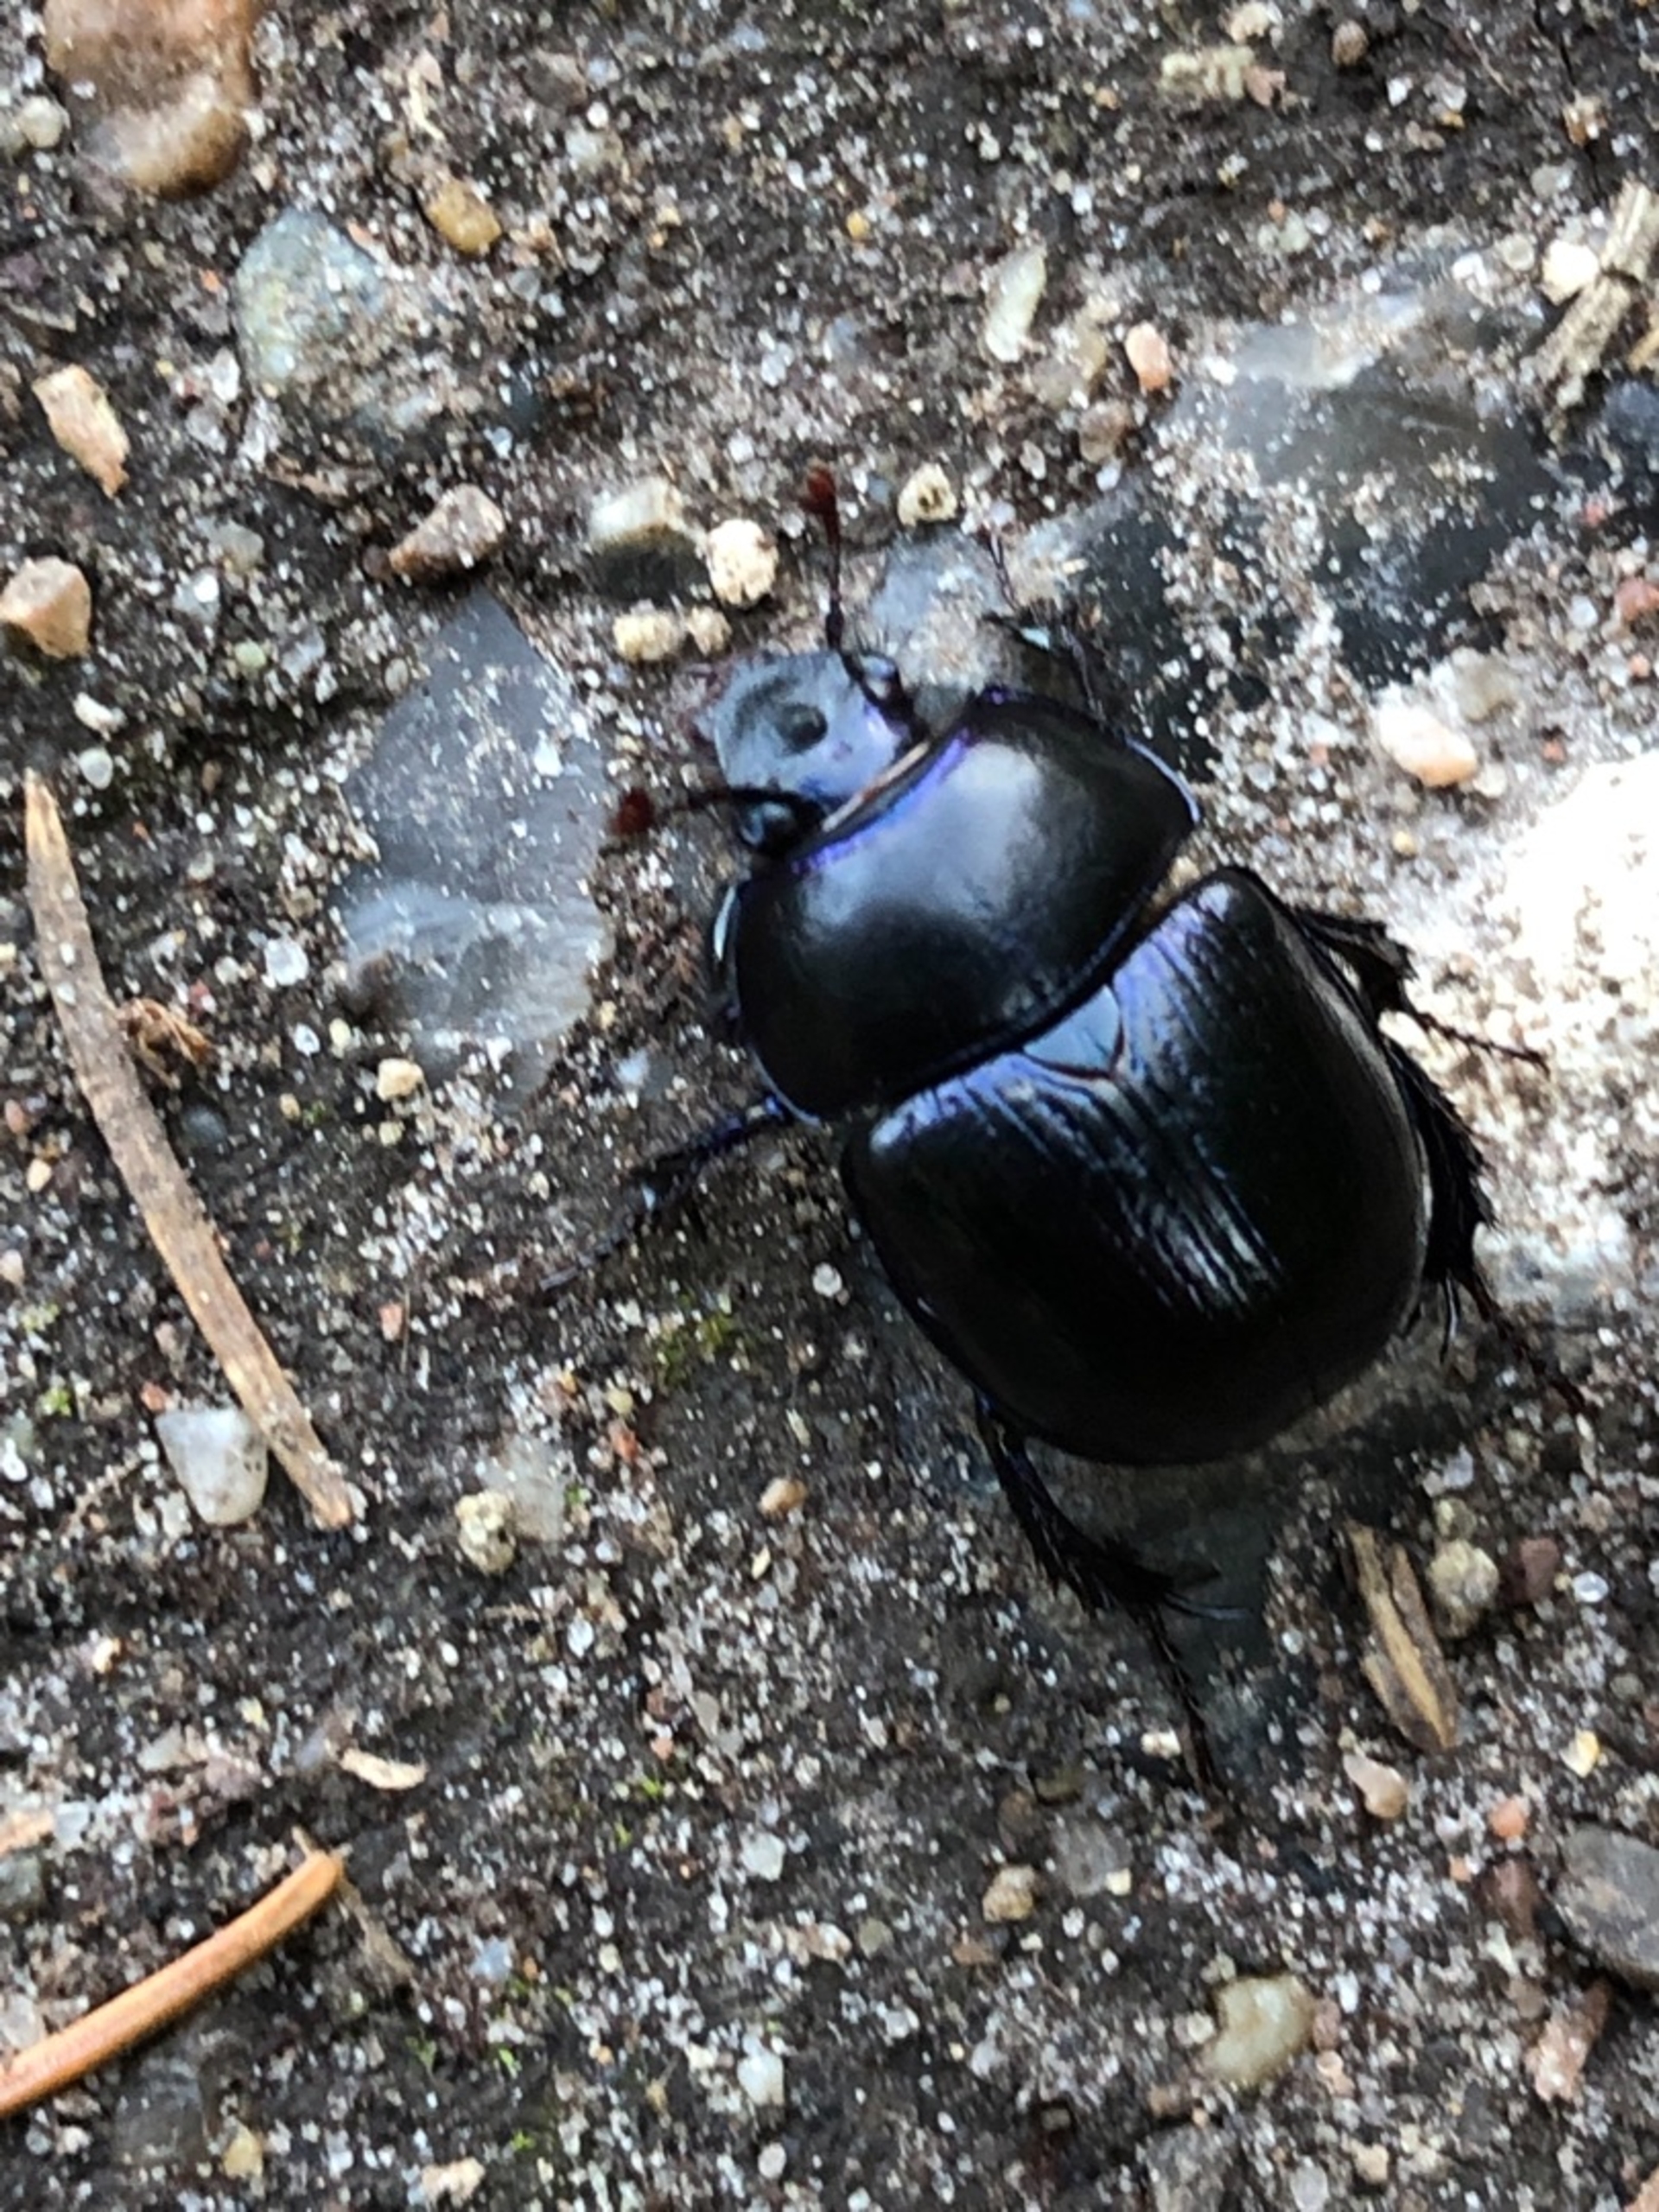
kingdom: Animalia
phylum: Arthropoda
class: Insecta
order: Coleoptera
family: Geotrupidae
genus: Anoplotrupes
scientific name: Anoplotrupes stercorosus
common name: Skovskarnbasse
